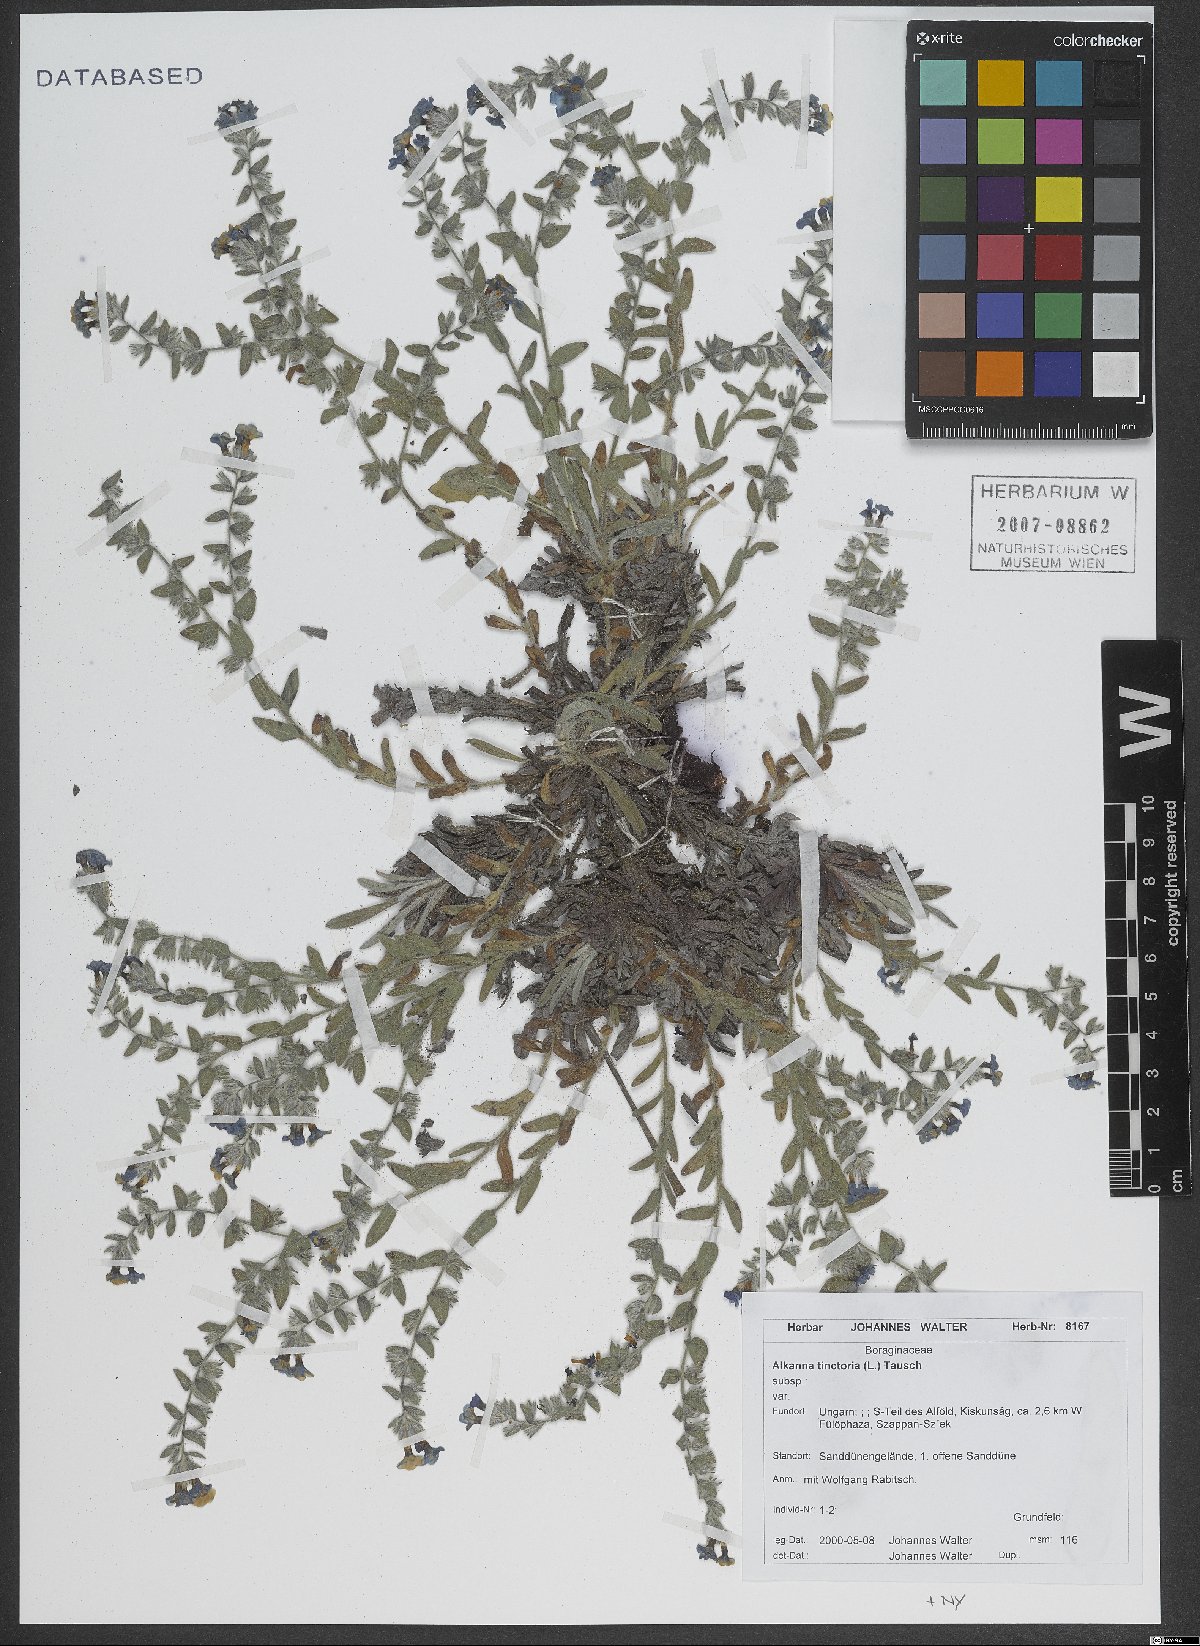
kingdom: Plantae
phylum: Tracheophyta
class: Magnoliopsida
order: Boraginales
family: Boraginaceae
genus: Alkanna
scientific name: Alkanna tinctoria
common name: Dyer's-alkanet
